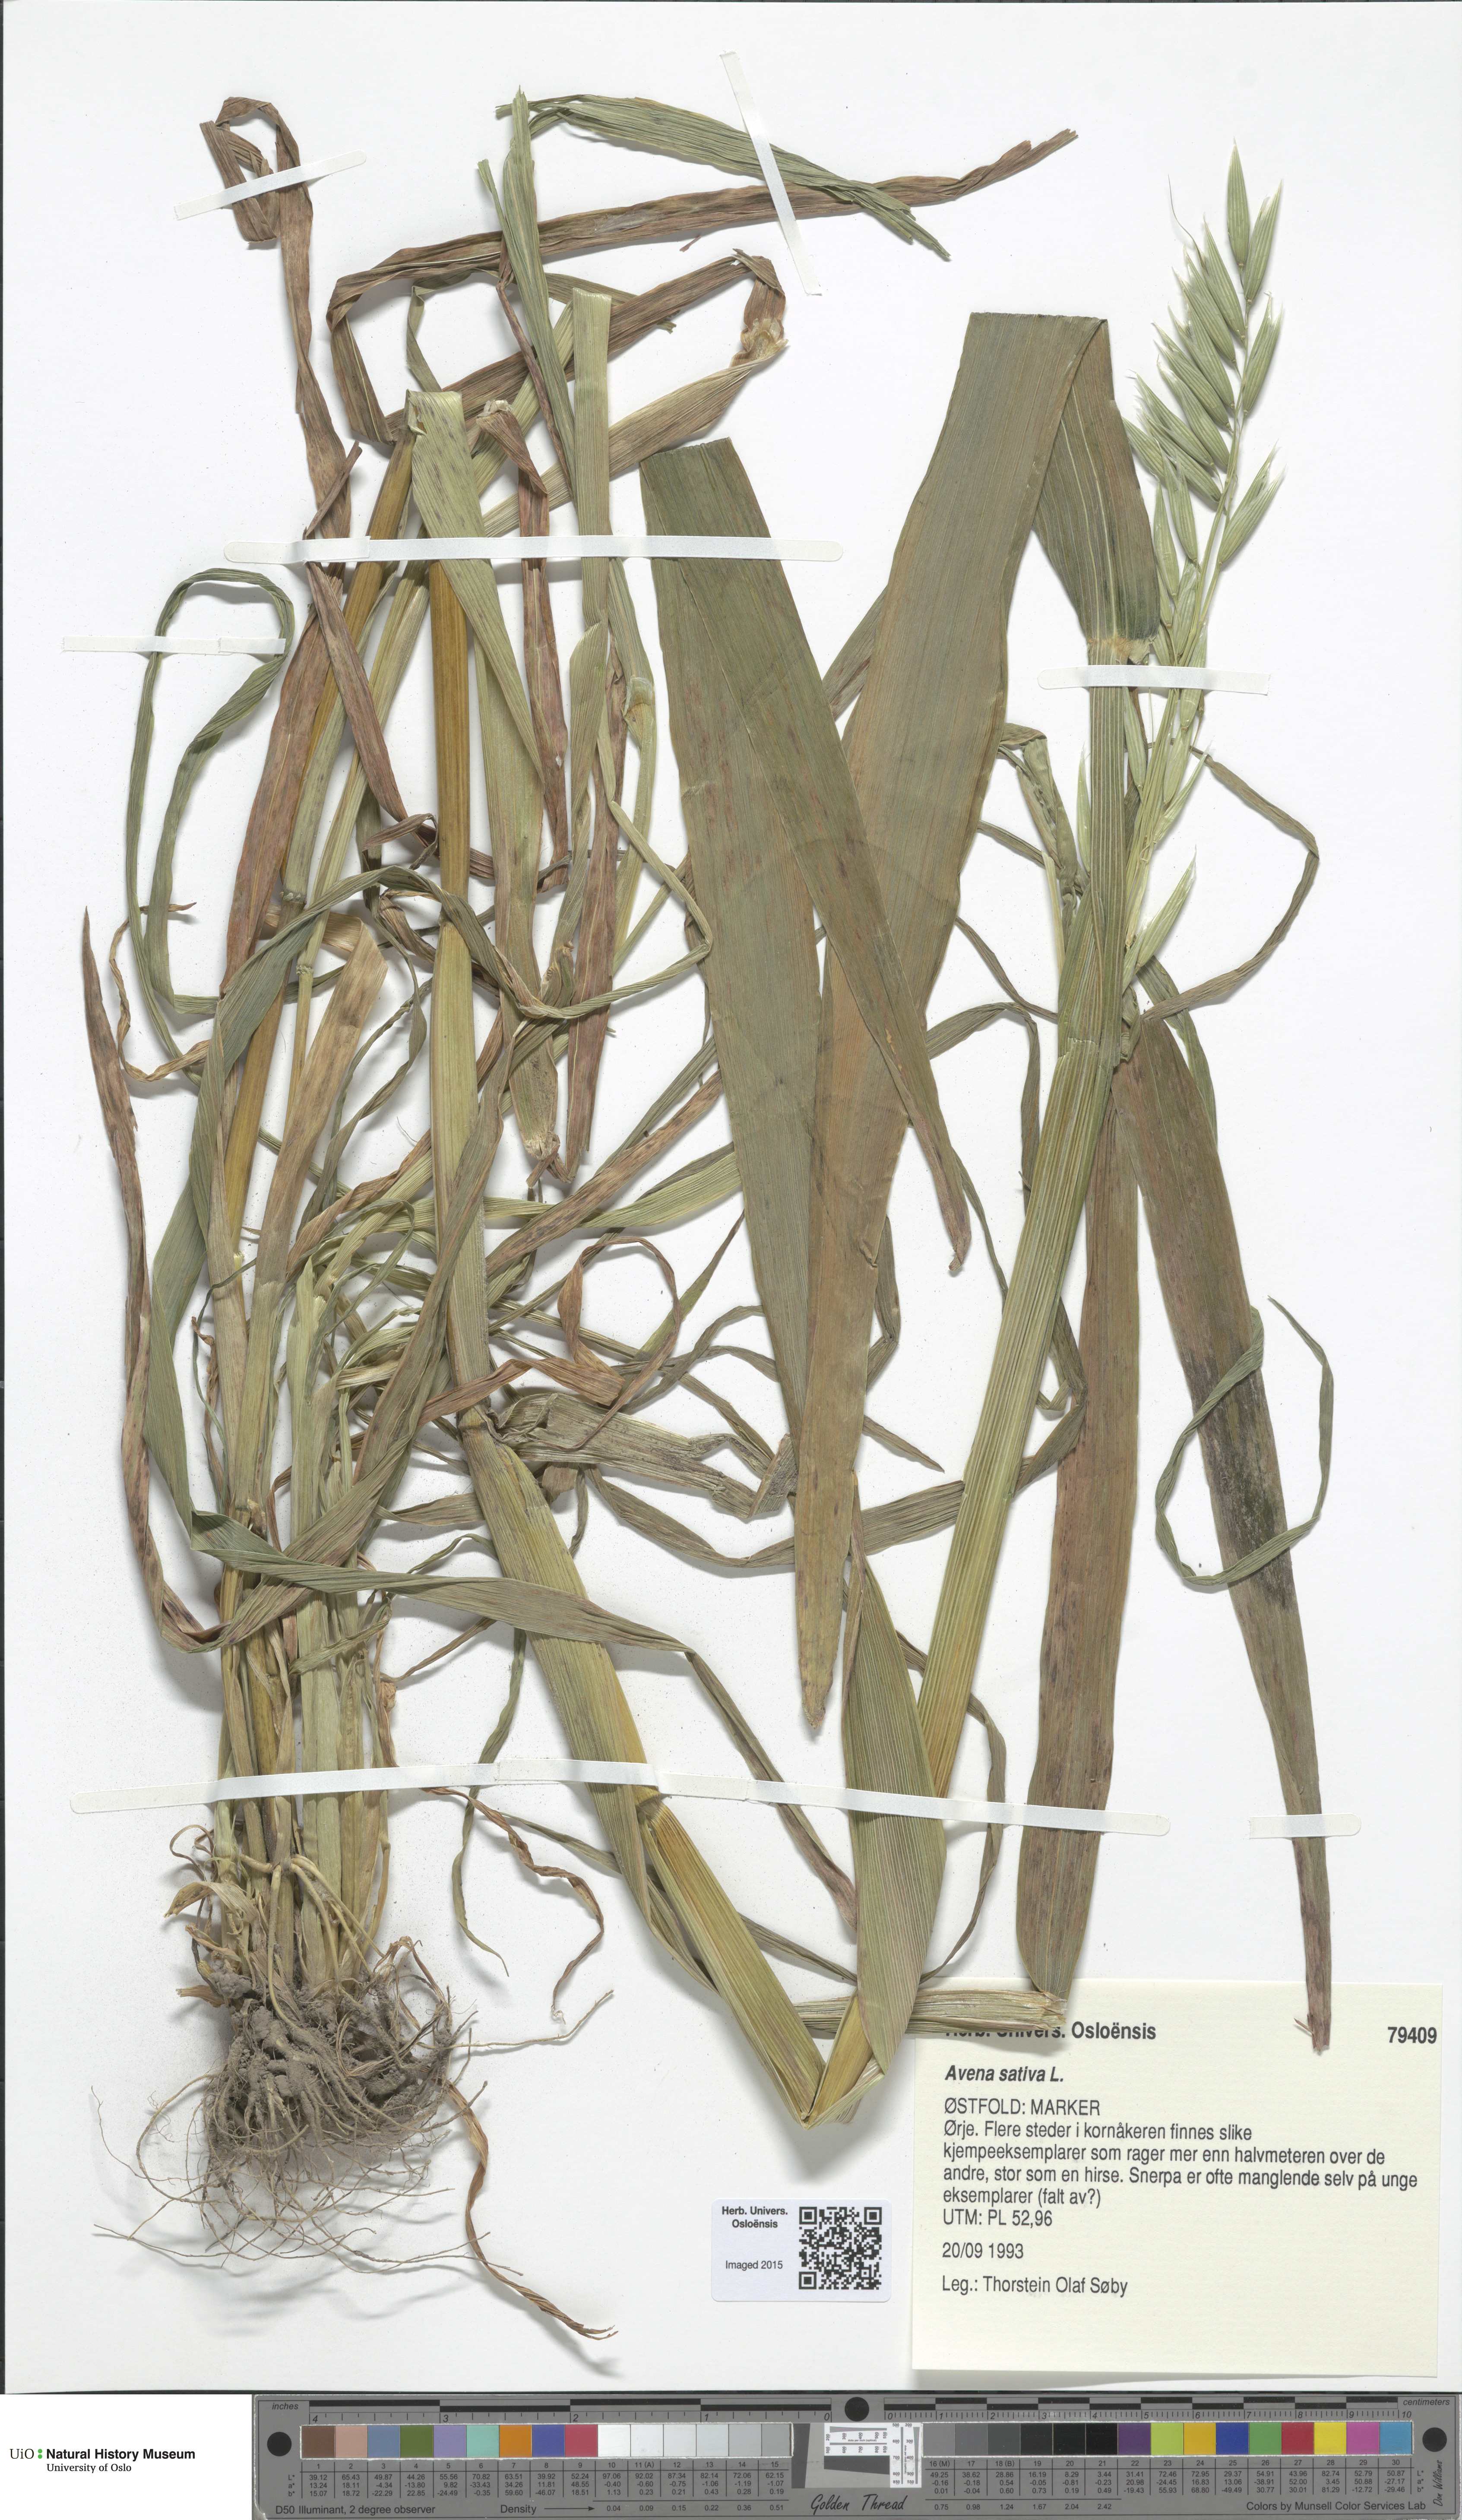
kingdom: Plantae
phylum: Tracheophyta
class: Liliopsida
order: Poales
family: Poaceae
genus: Avena
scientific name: Avena sativa
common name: Oat
